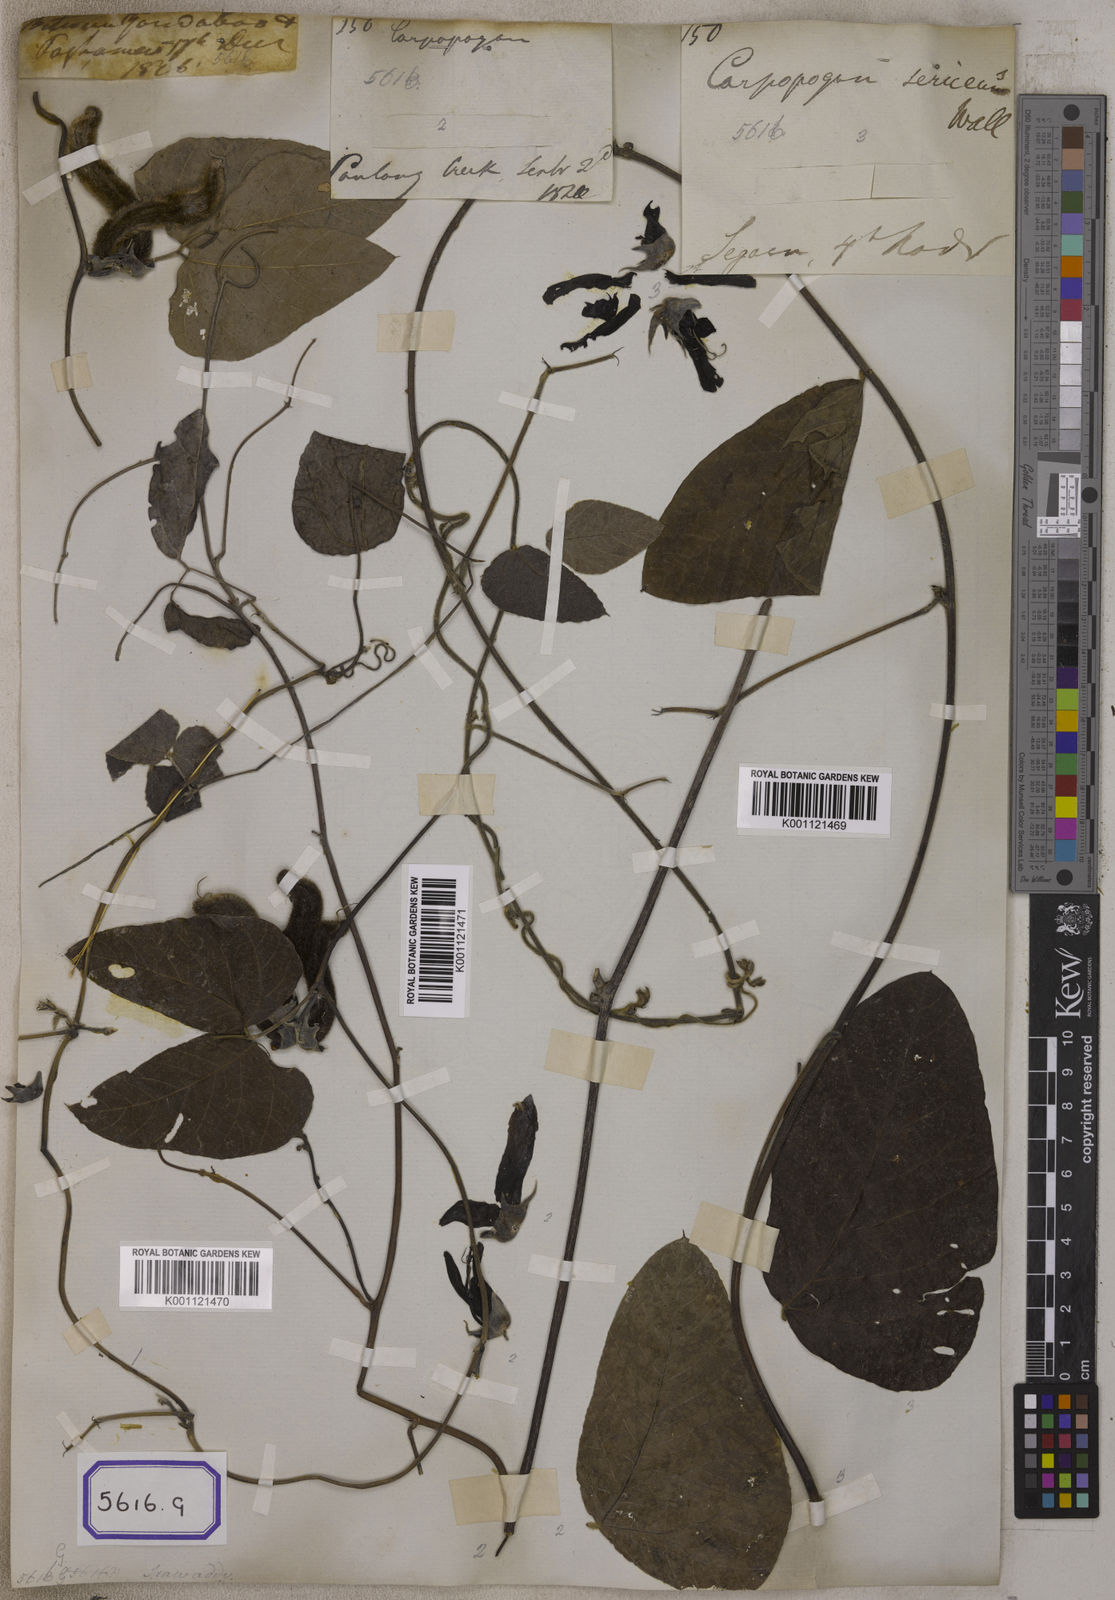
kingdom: Plantae
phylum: Tracheophyta
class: Magnoliopsida
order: Fabales
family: Fabaceae
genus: Mucuna
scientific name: Mucuna pruriens
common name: Cow-itch
